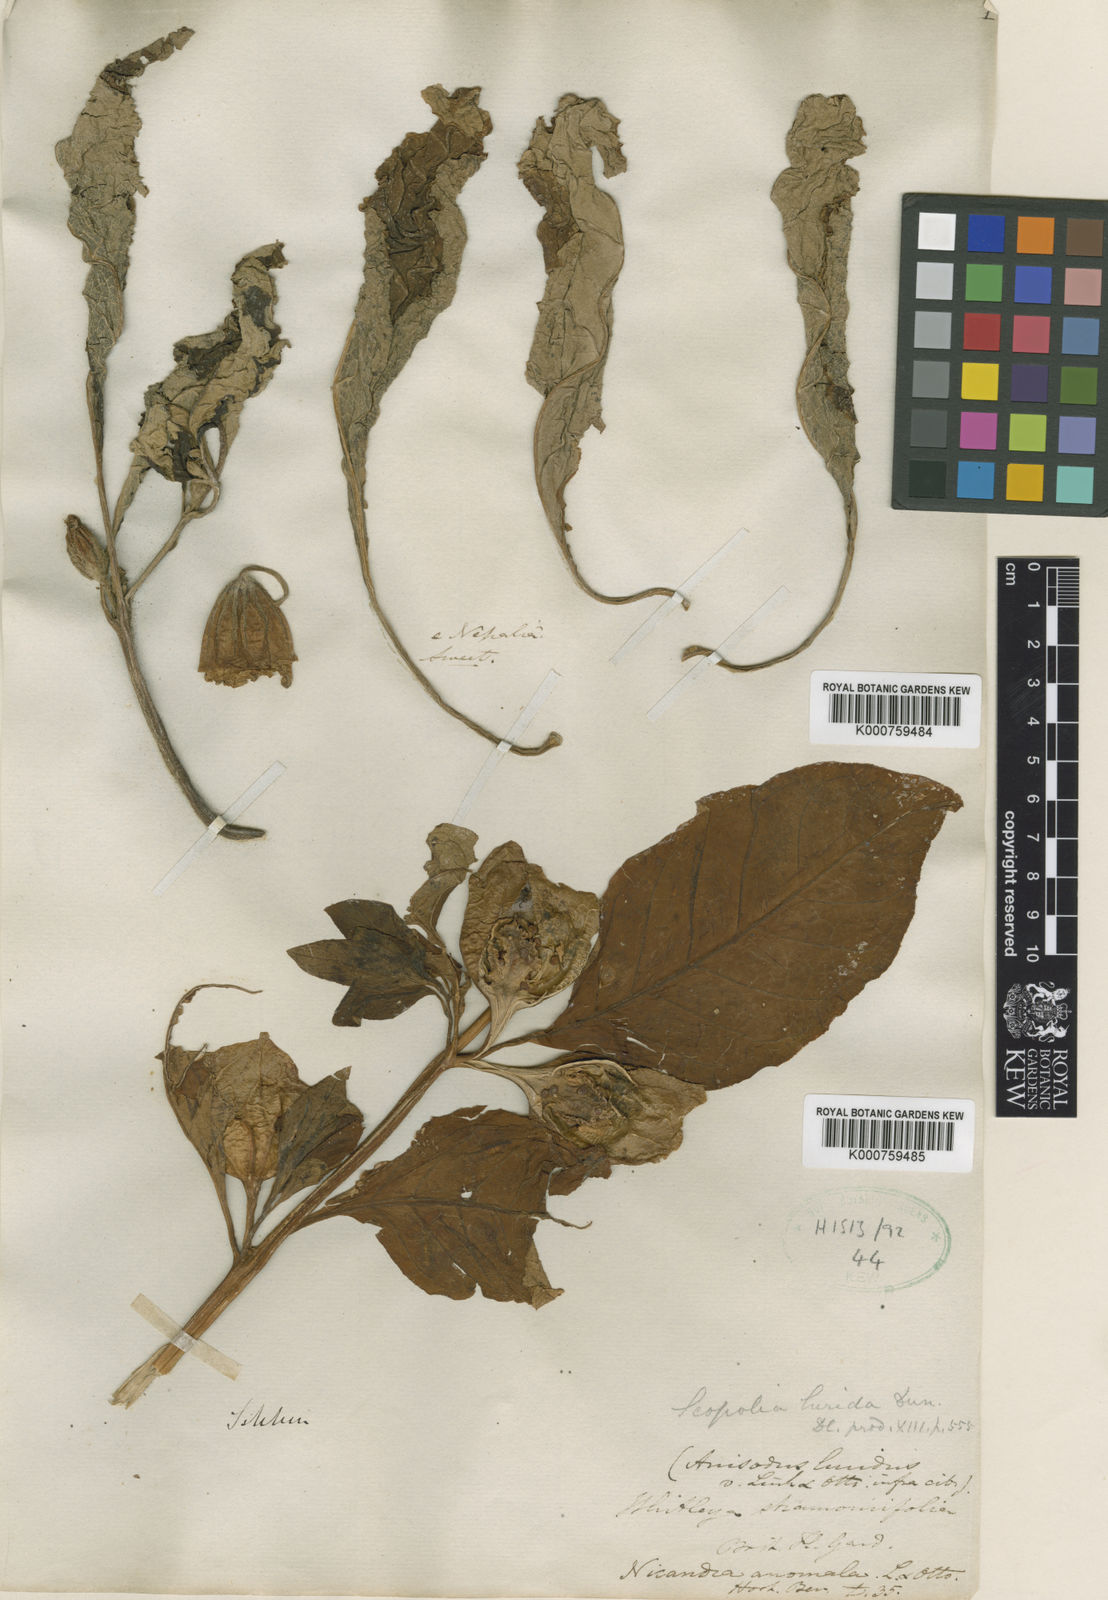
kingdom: Plantae
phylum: Tracheophyta
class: Magnoliopsida
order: Solanales
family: Solanaceae
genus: Anisodus
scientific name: Anisodus
